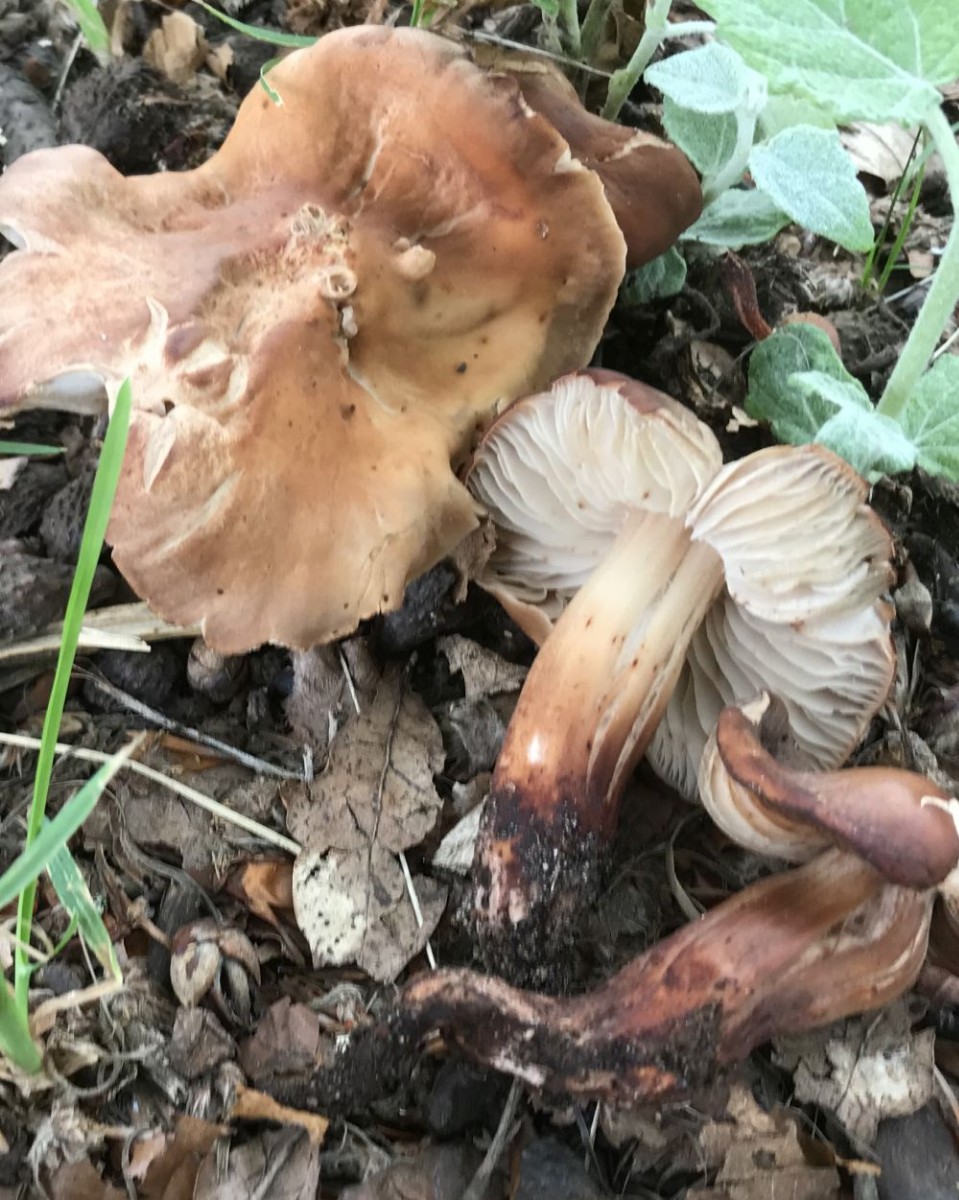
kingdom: Fungi
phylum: Basidiomycota
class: Agaricomycetes
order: Agaricales
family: Omphalotaceae
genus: Gymnopus
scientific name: Gymnopus fusipes
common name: tenstokket fladhat
